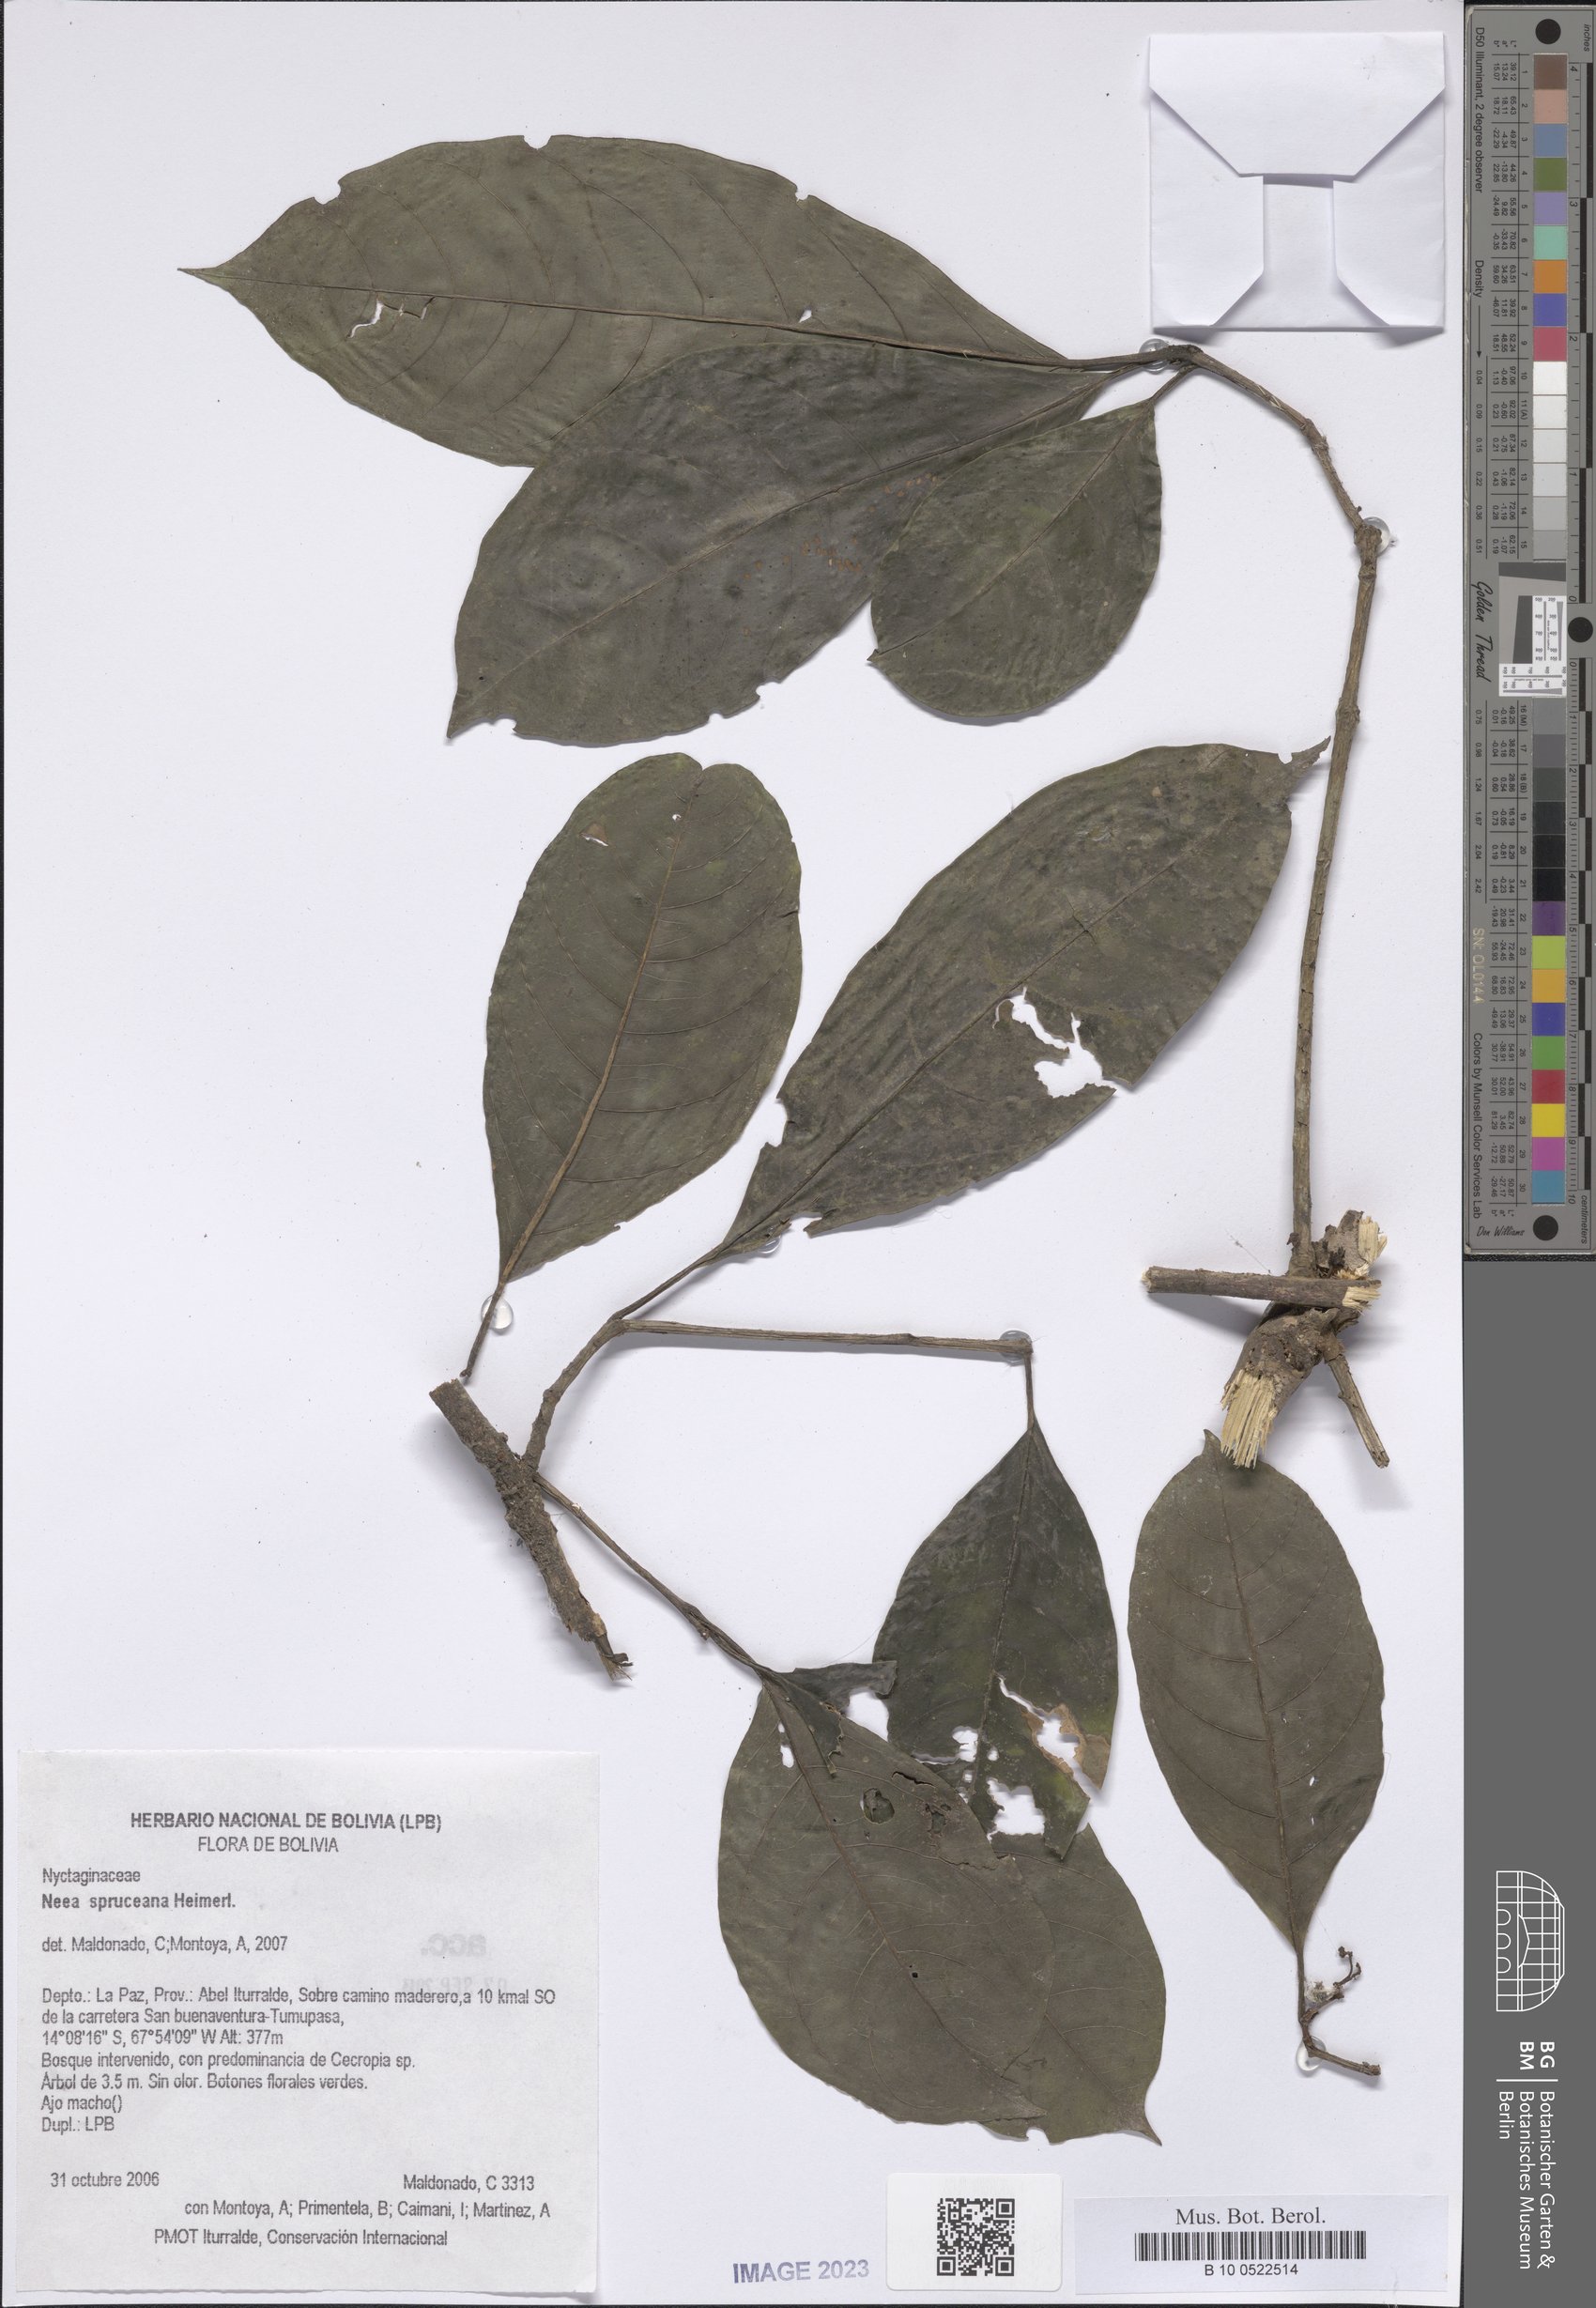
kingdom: Plantae
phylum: Tracheophyta
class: Magnoliopsida
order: Caryophyllales
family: Nyctaginaceae
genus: Neea
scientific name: Neea spruceana
